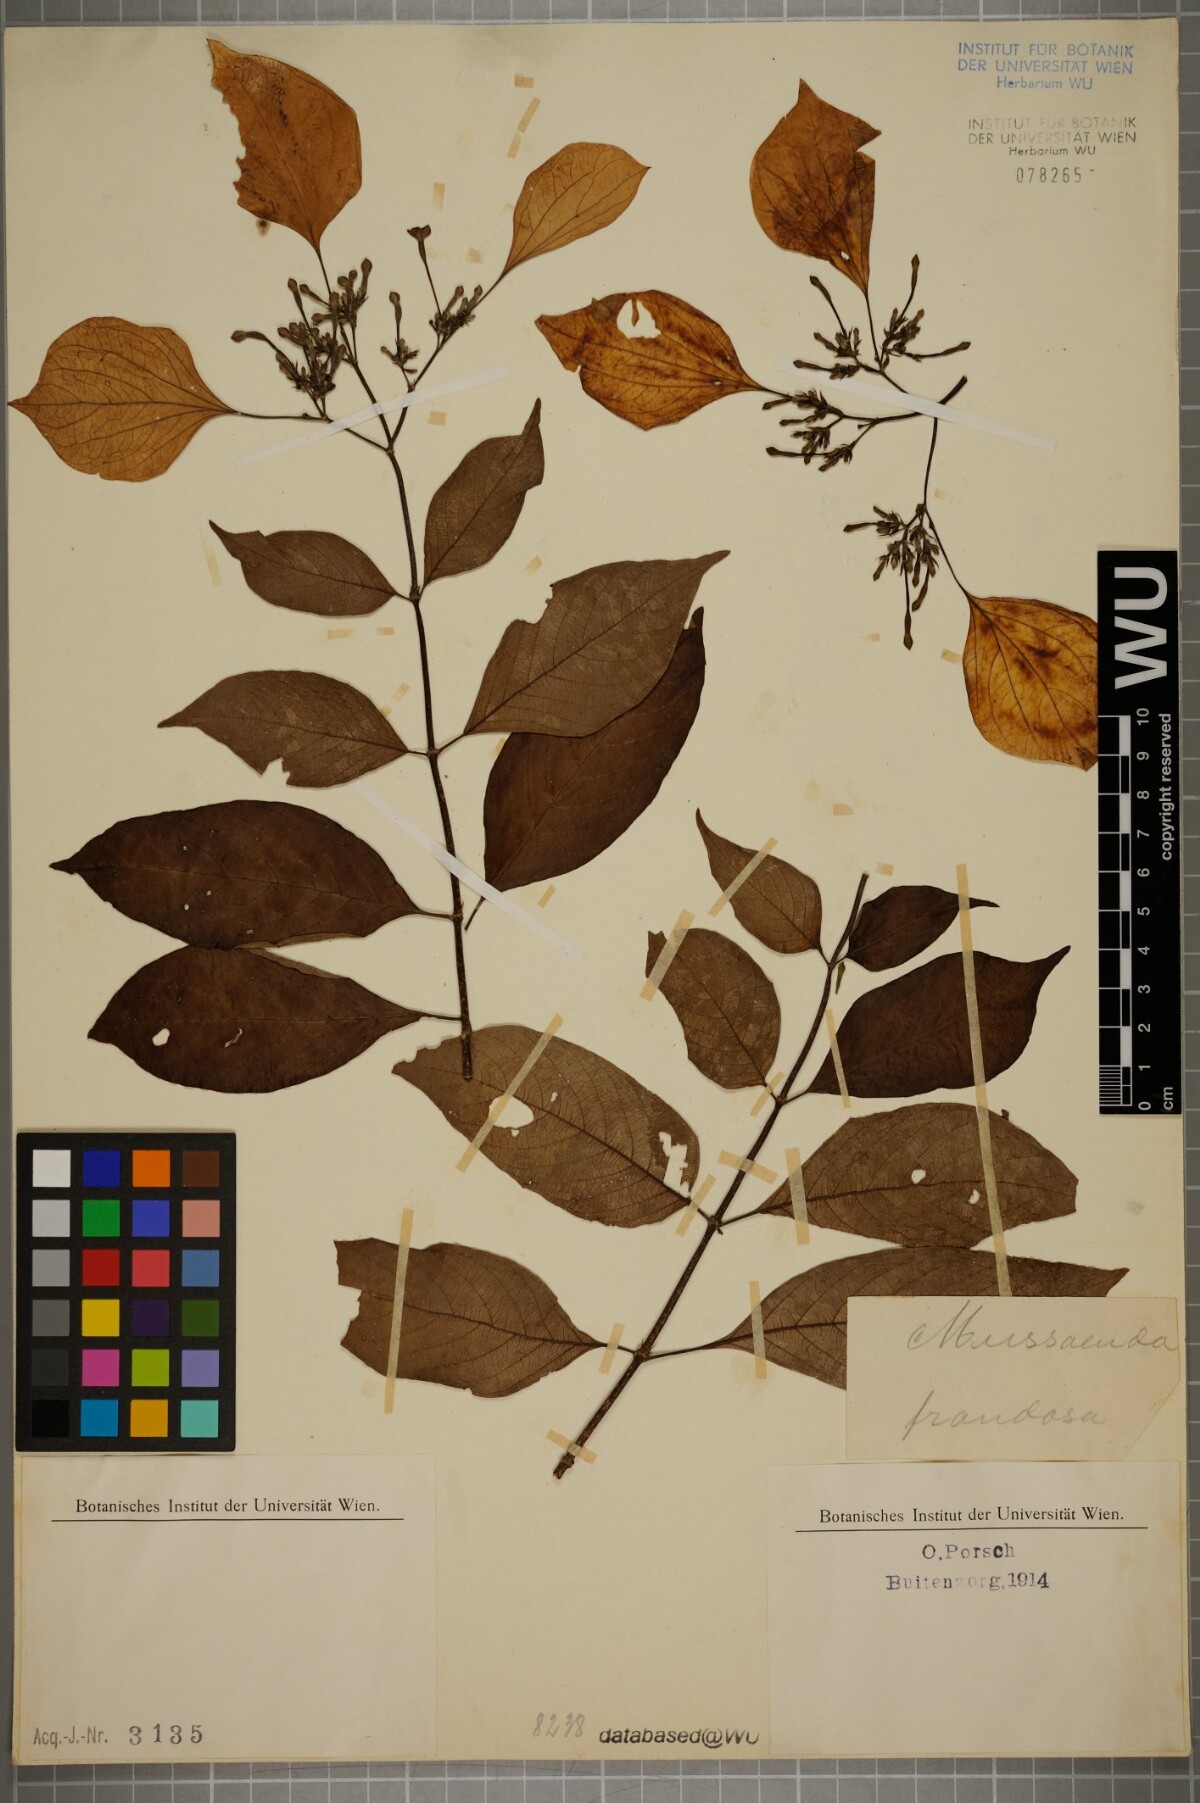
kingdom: Plantae
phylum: Tracheophyta
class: Magnoliopsida
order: Gentianales
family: Rubiaceae
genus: Mussaenda
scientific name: Mussaenda frondosa
